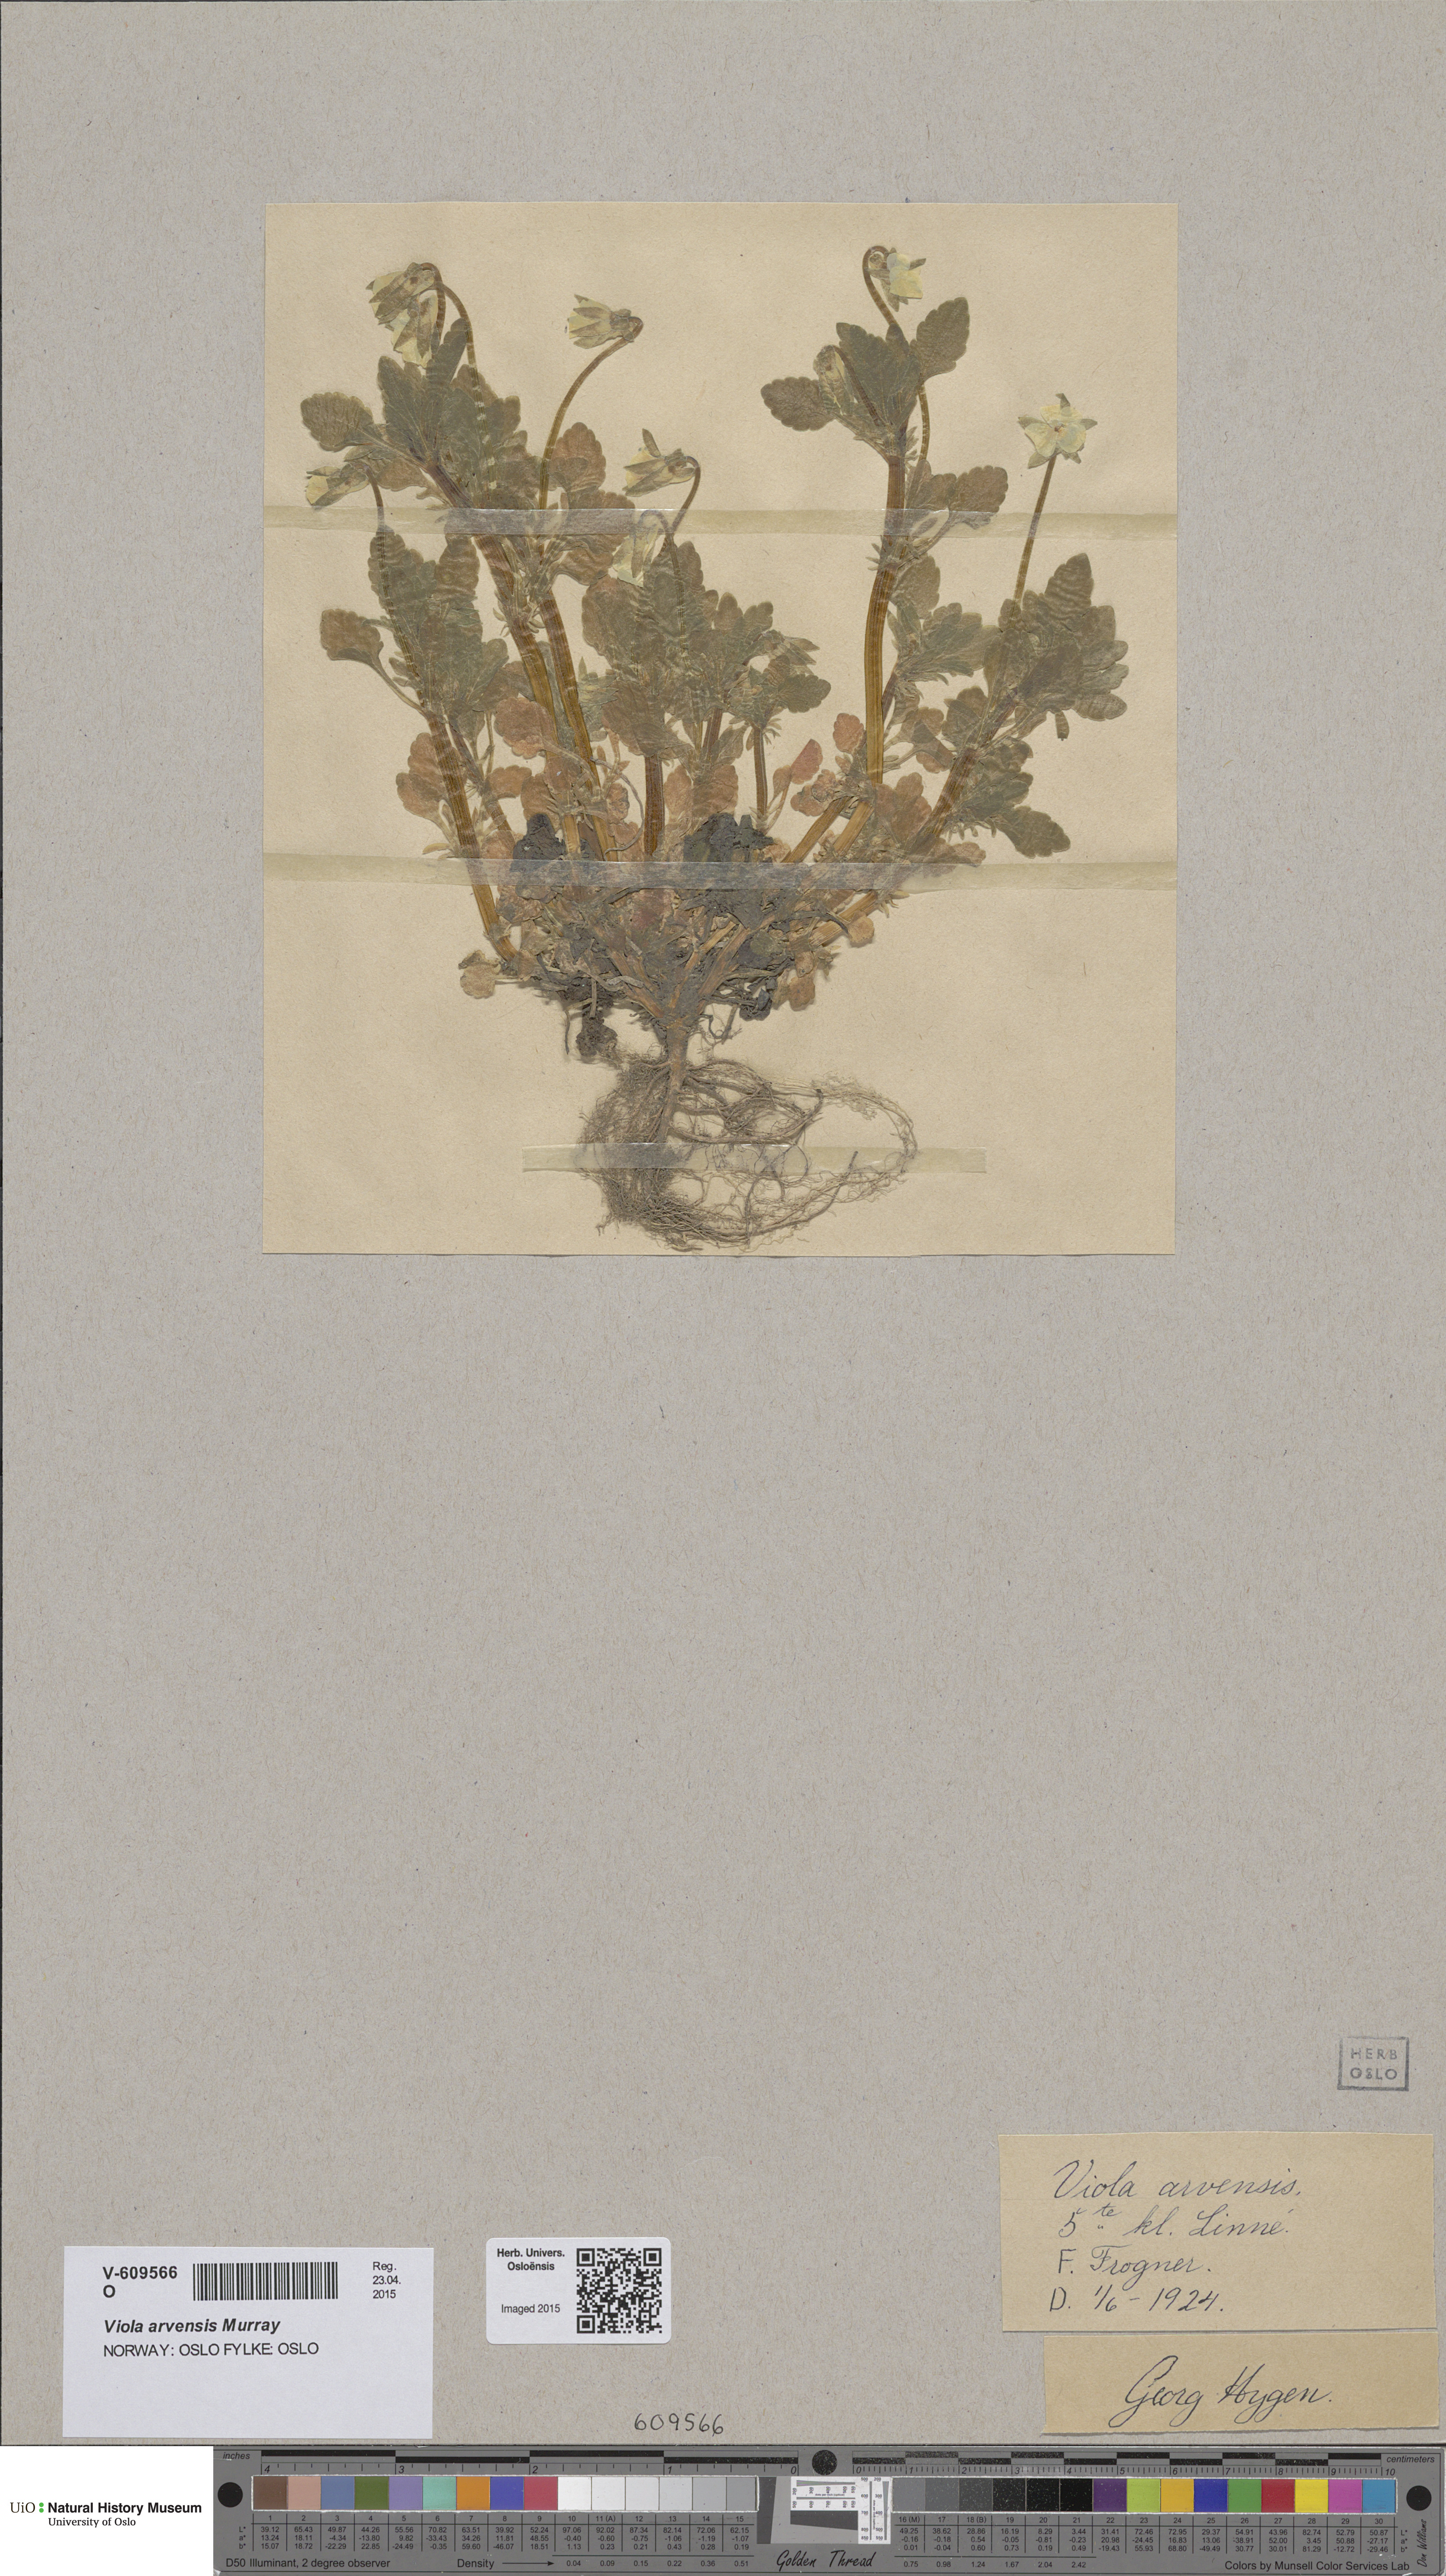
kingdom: Plantae
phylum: Tracheophyta
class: Magnoliopsida
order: Malpighiales
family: Violaceae
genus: Viola
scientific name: Viola arvensis
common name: Field pansy
